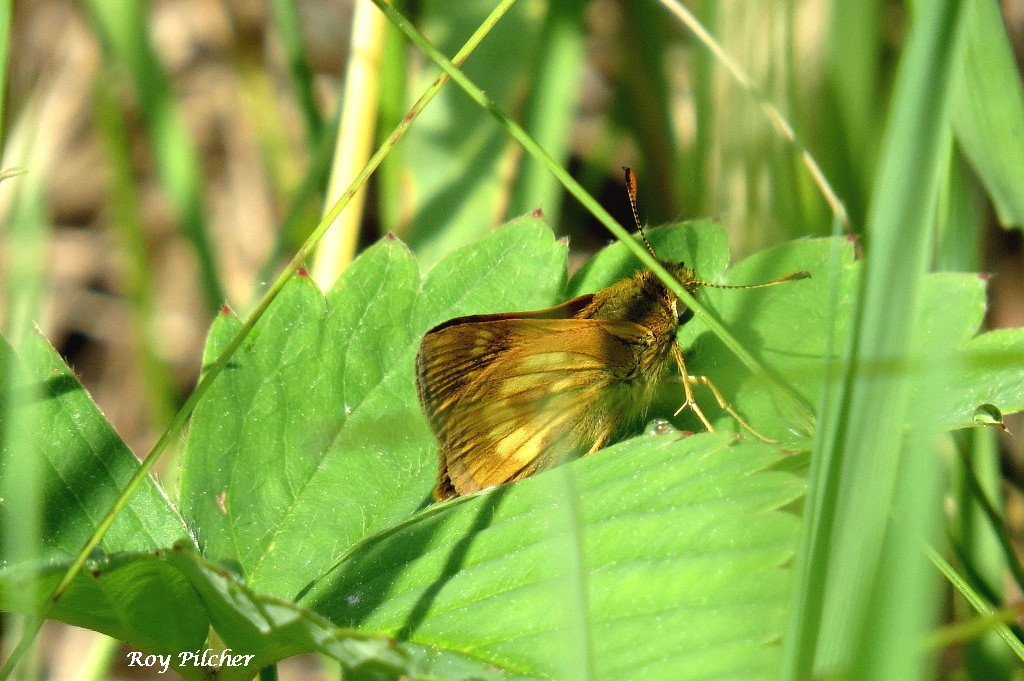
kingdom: Animalia
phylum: Arthropoda
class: Insecta
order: Lepidoptera
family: Hesperiidae
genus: Polites
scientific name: Polites
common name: Long Dash Skipper
